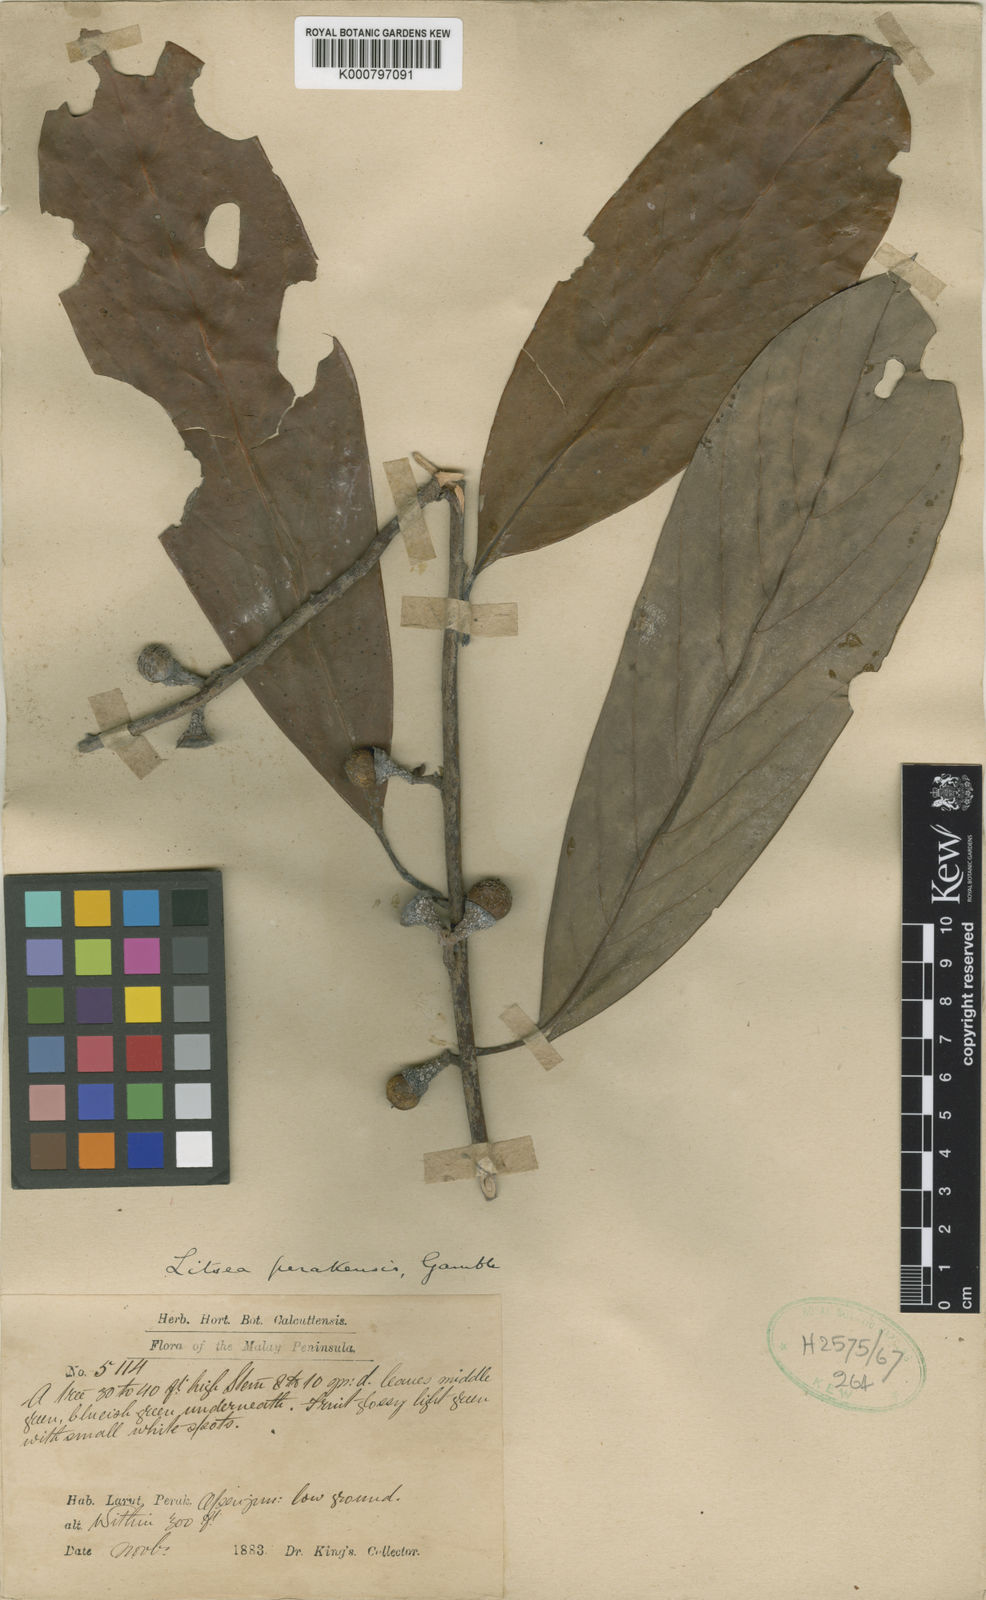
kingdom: Plantae
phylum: Tracheophyta
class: Magnoliopsida
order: Laurales
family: Lauraceae
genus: Litsea
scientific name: Litsea accedens
